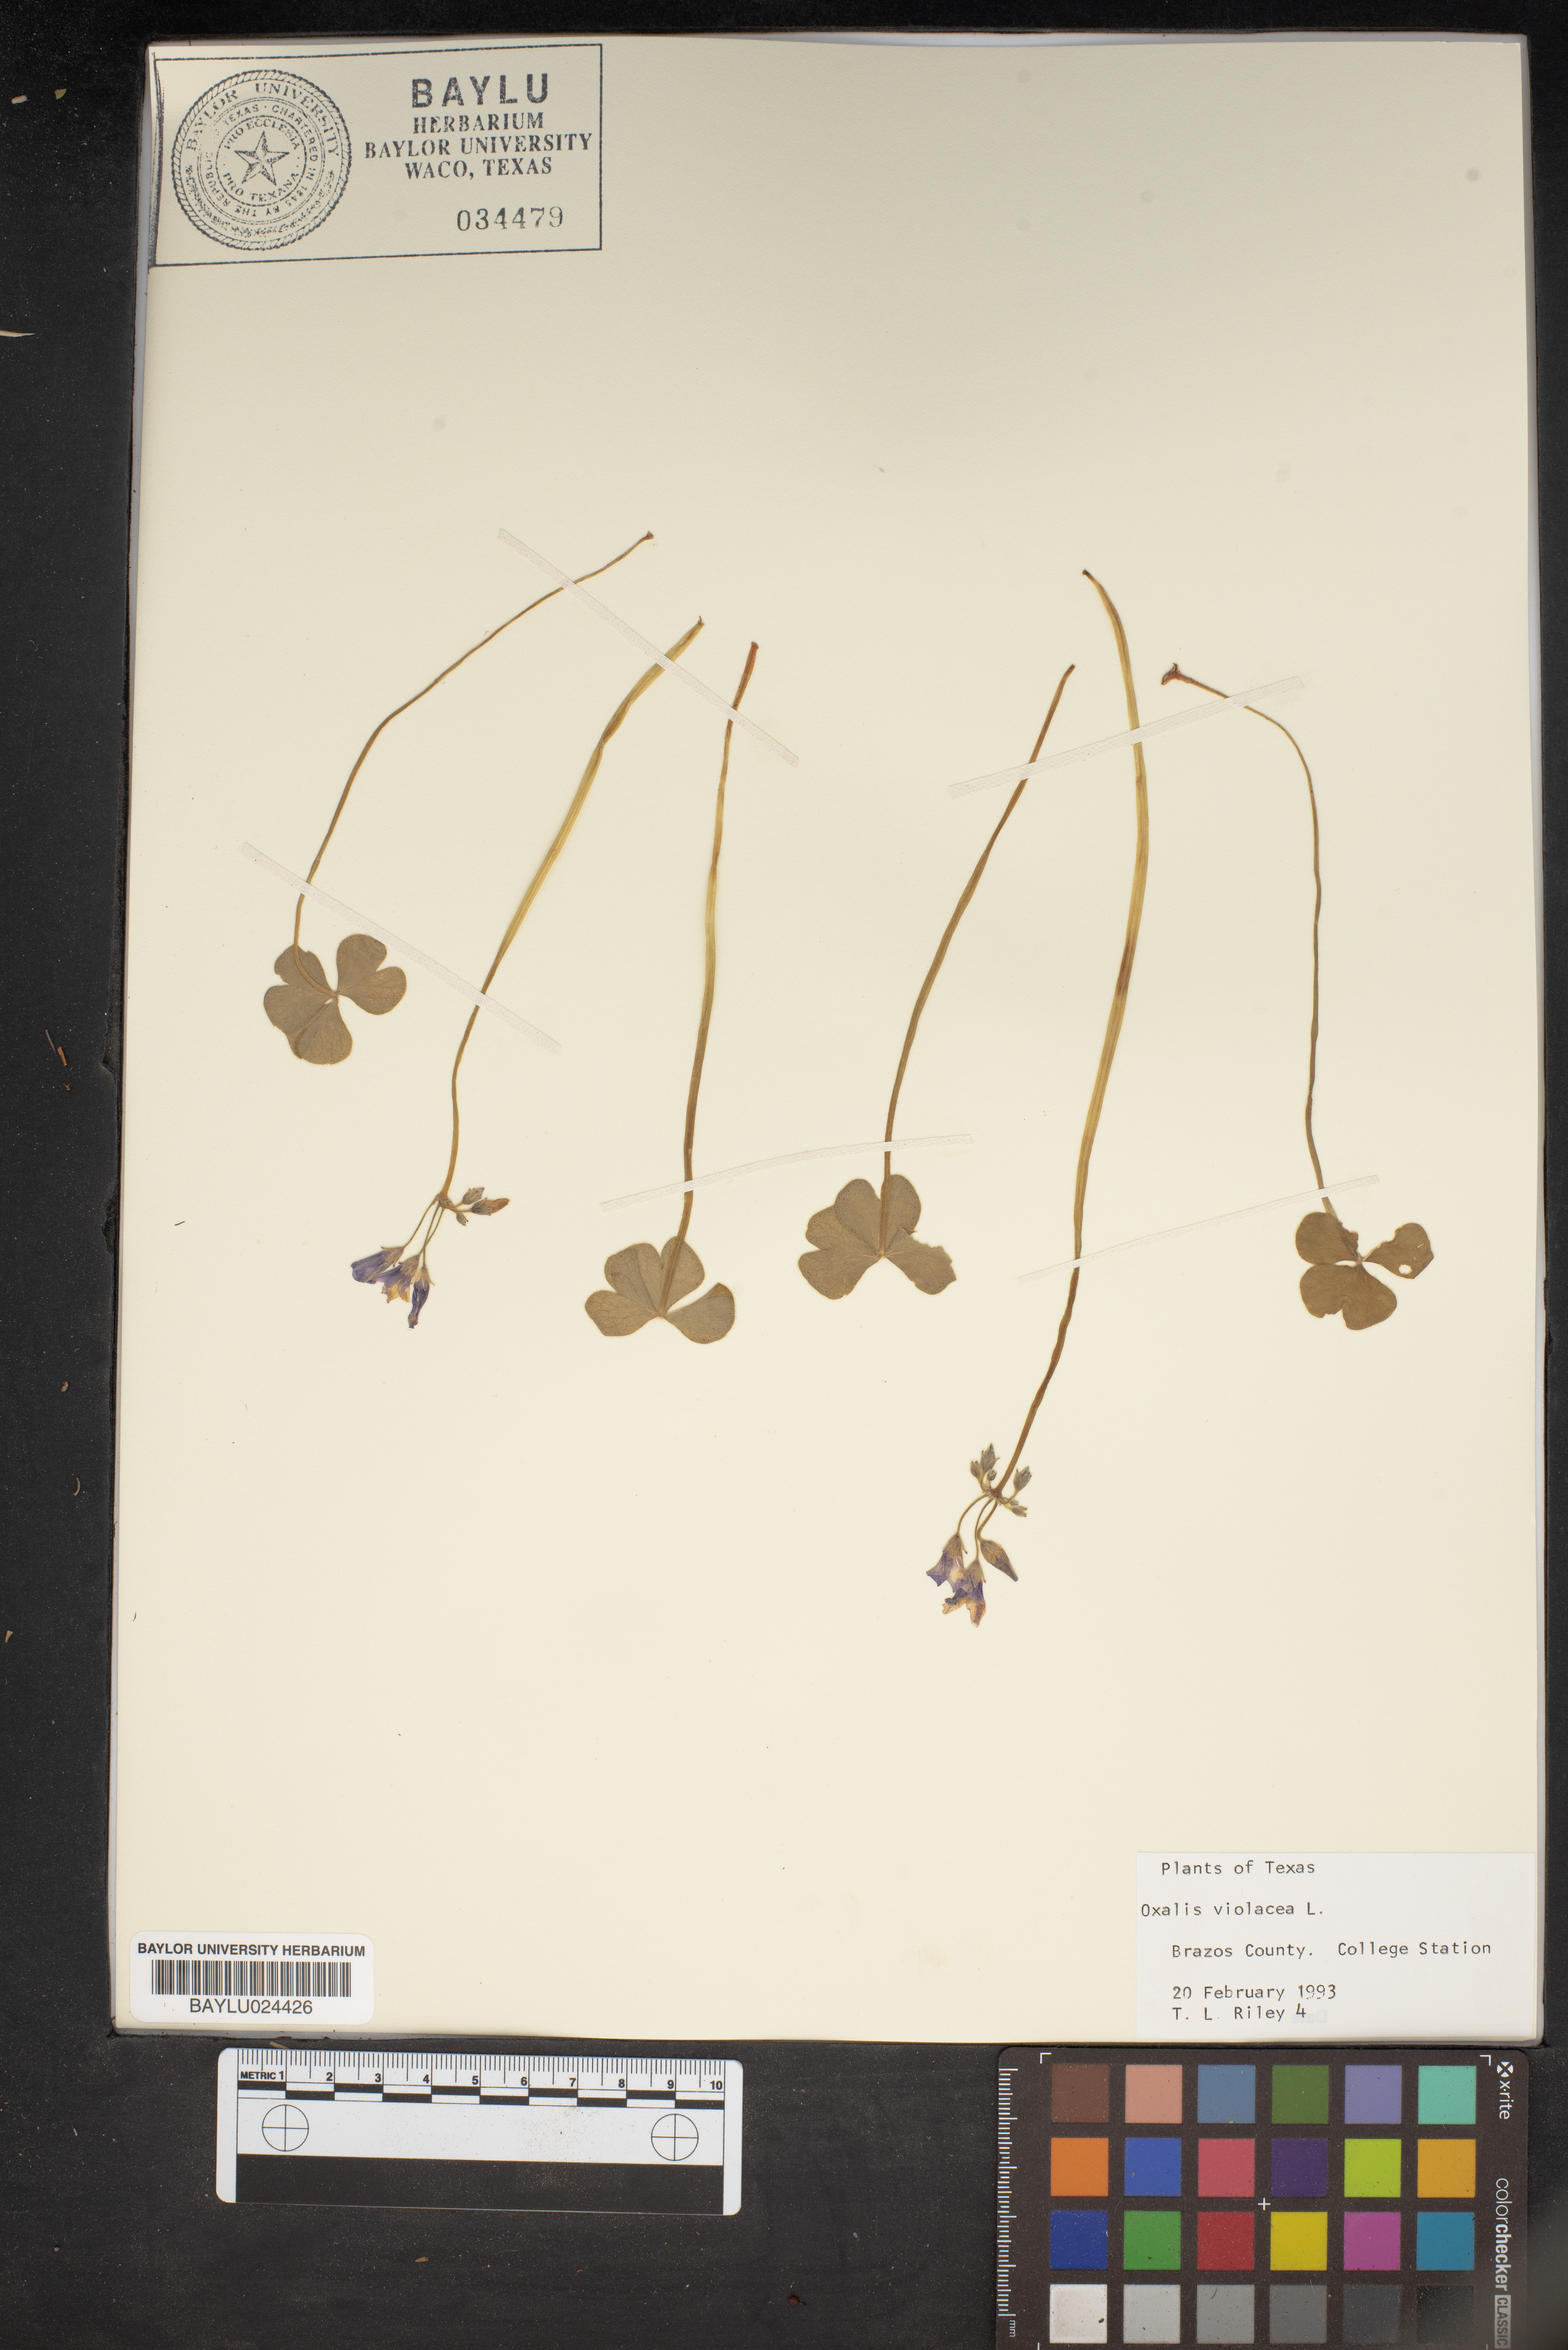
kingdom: Plantae
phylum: Tracheophyta
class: Magnoliopsida
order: Oxalidales
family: Oxalidaceae
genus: Oxalis
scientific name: Oxalis violacea
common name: Violet wood-sorrel
